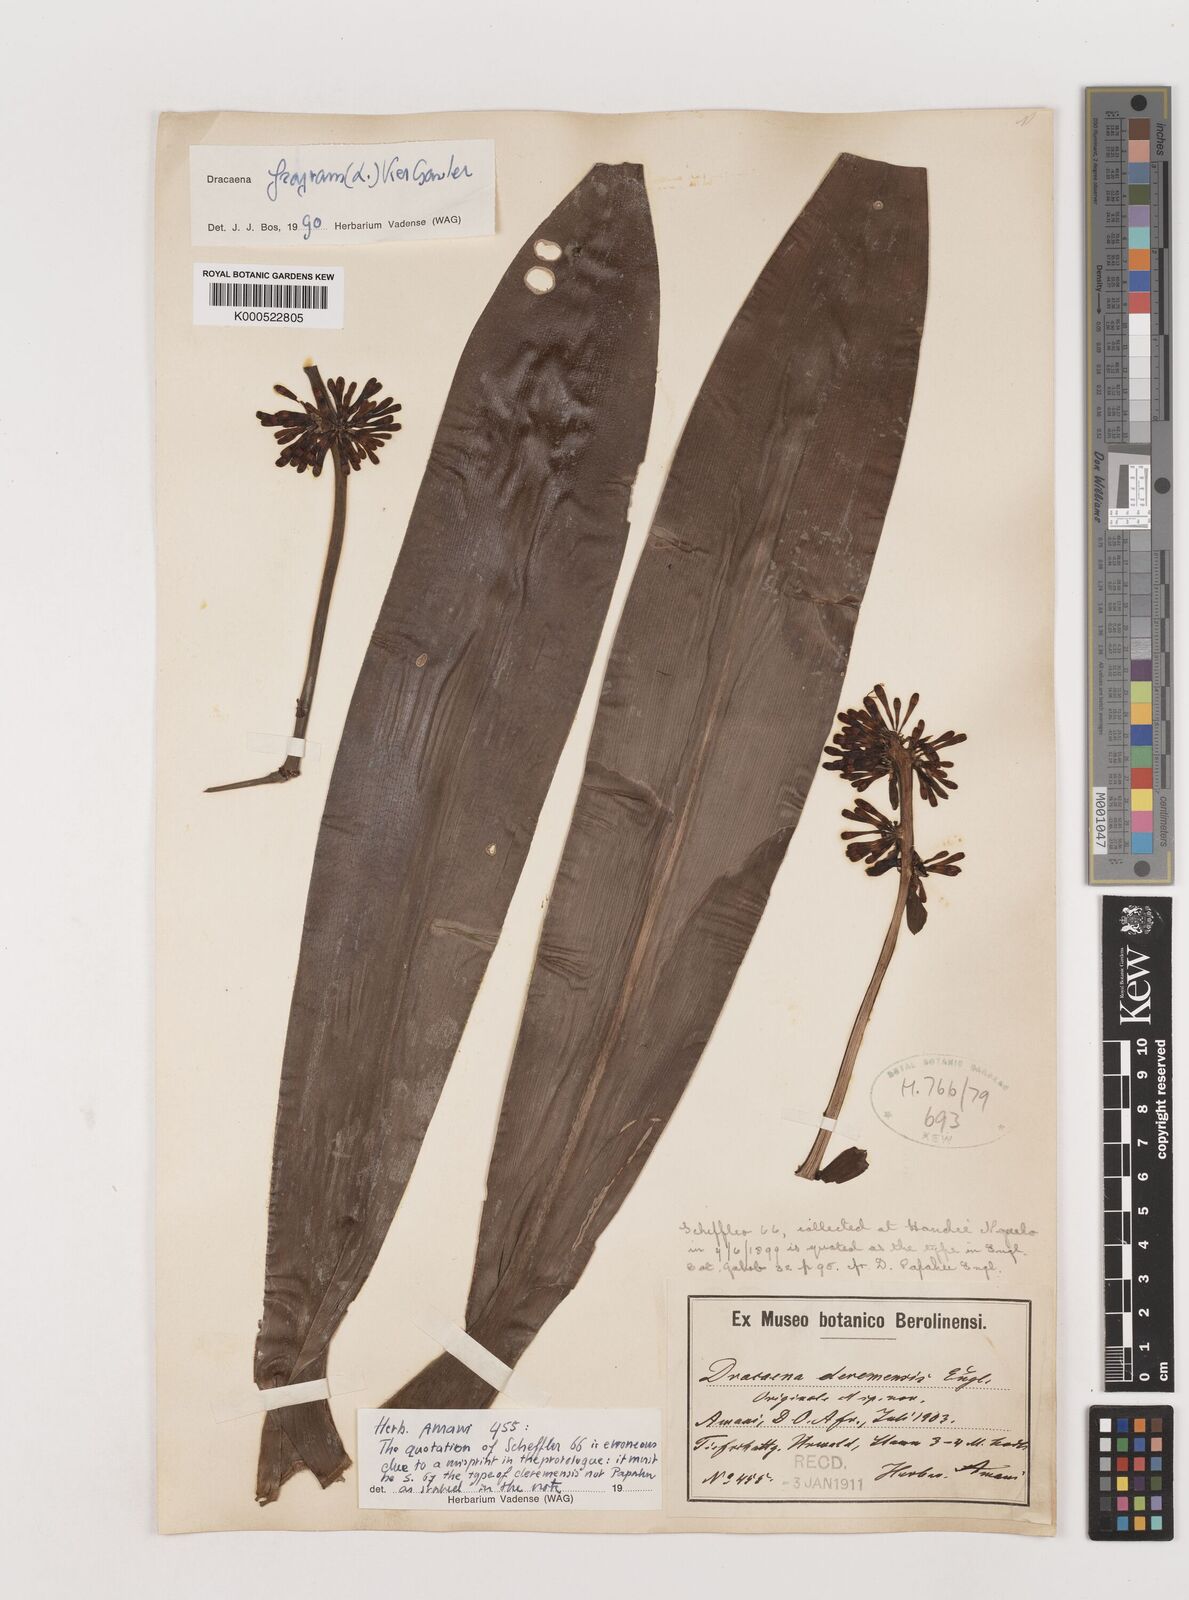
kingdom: Plantae
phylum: Tracheophyta
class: Liliopsida
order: Asparagales
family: Asparagaceae
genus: Dracaena
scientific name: Dracaena fragrans
